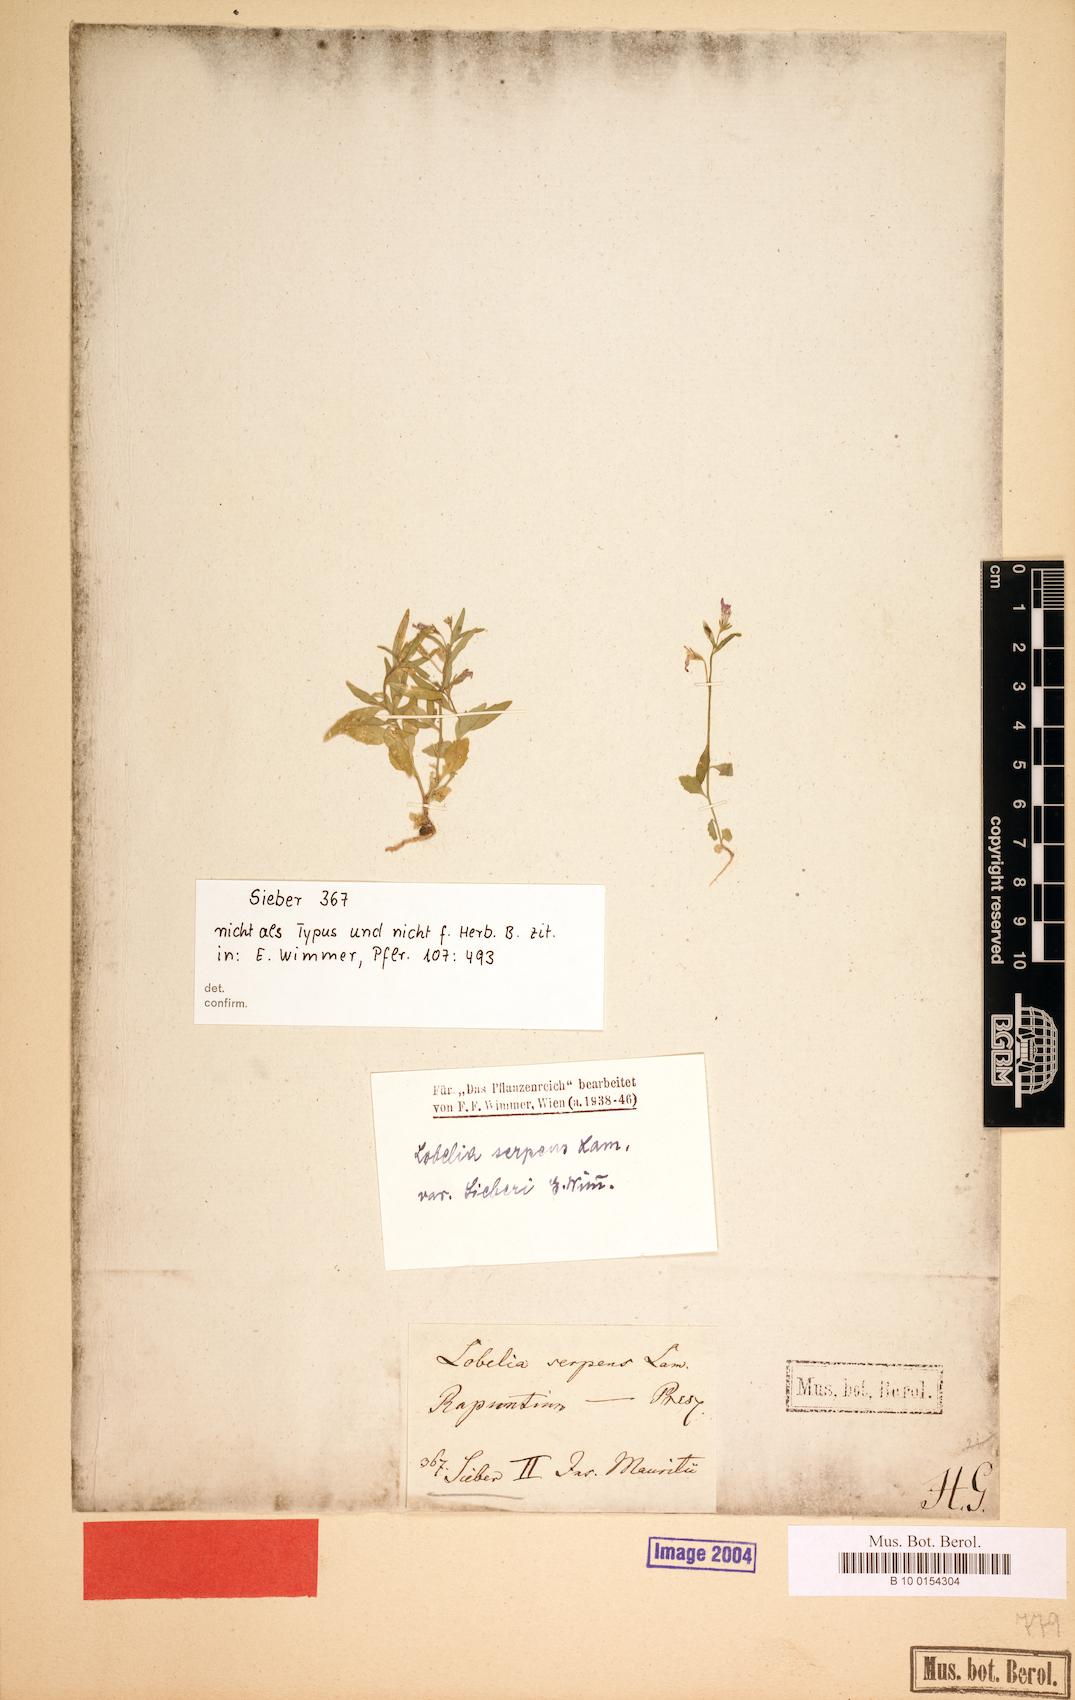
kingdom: Plantae
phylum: Tracheophyta
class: Magnoliopsida
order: Asterales
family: Campanulaceae
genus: Lobelia
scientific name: Lobelia serpens
